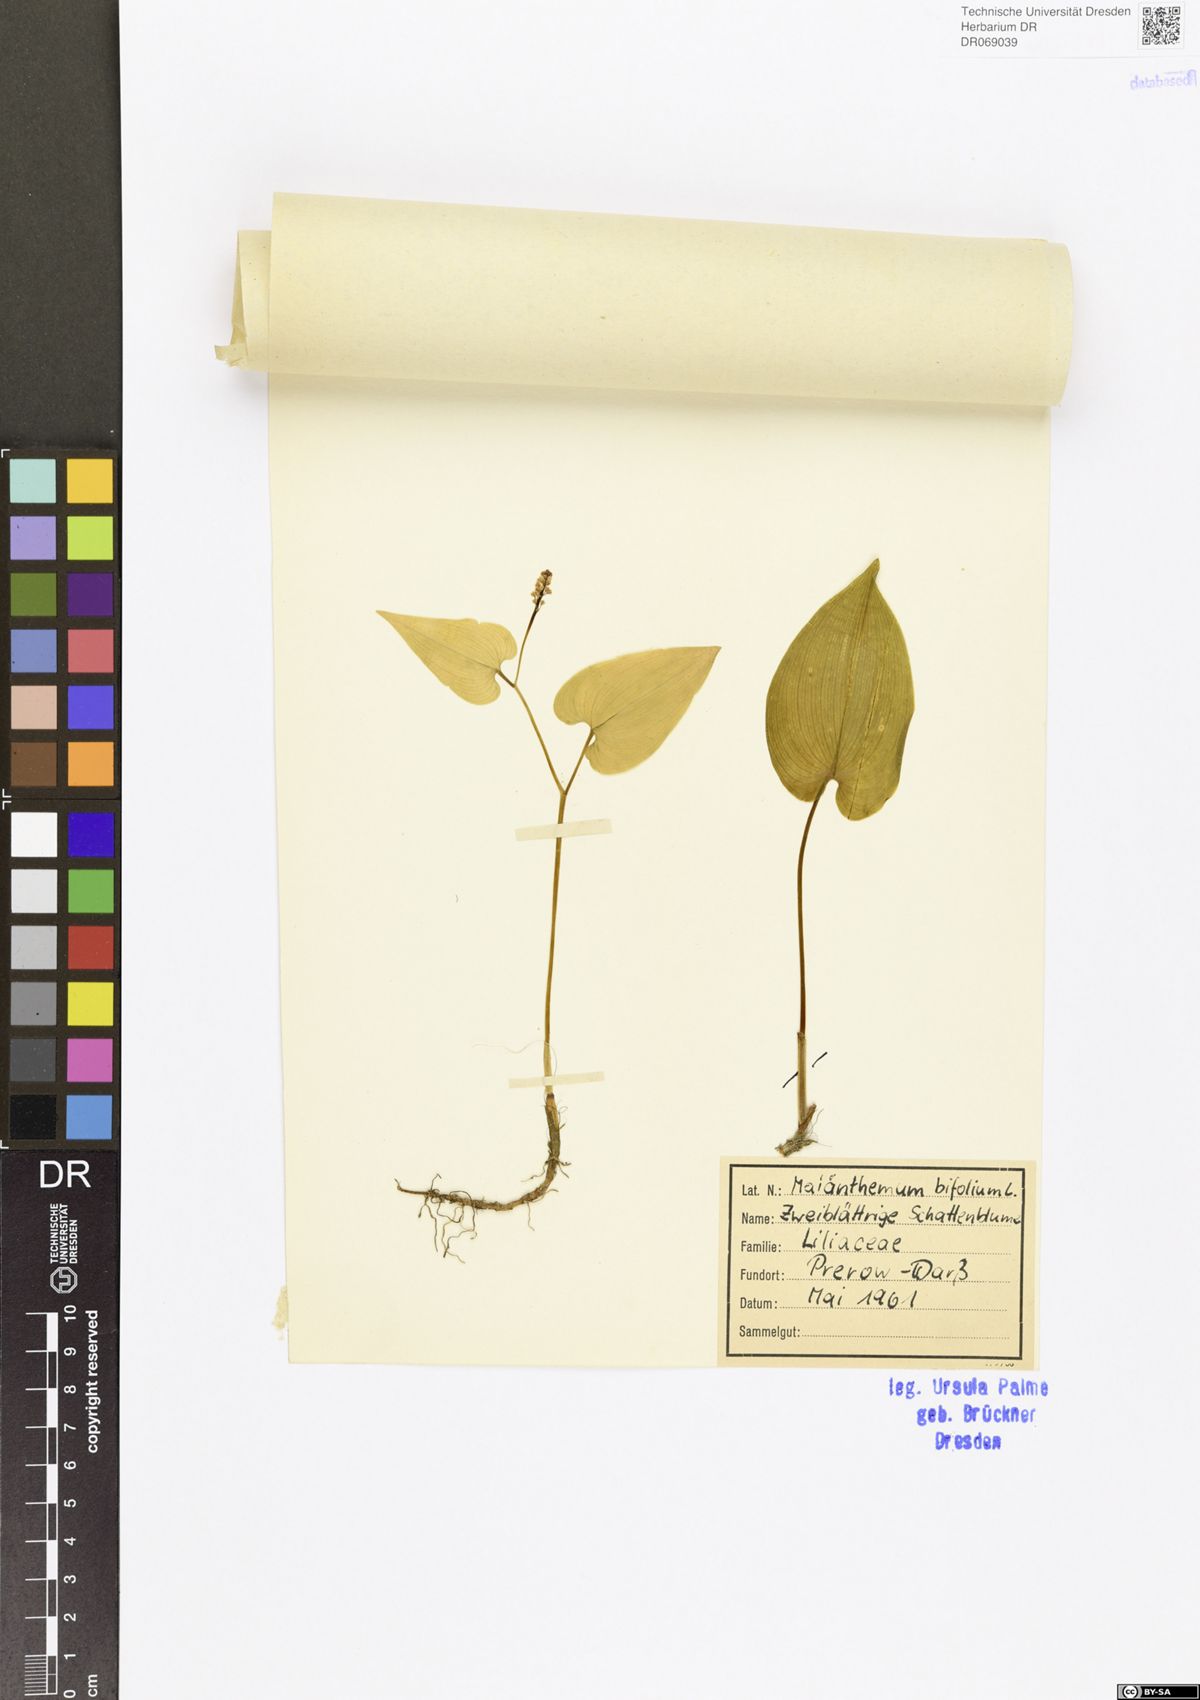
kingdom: Plantae
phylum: Tracheophyta
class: Liliopsida
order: Asparagales
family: Asparagaceae
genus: Maianthemum
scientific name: Maianthemum bifolium
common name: May lily
